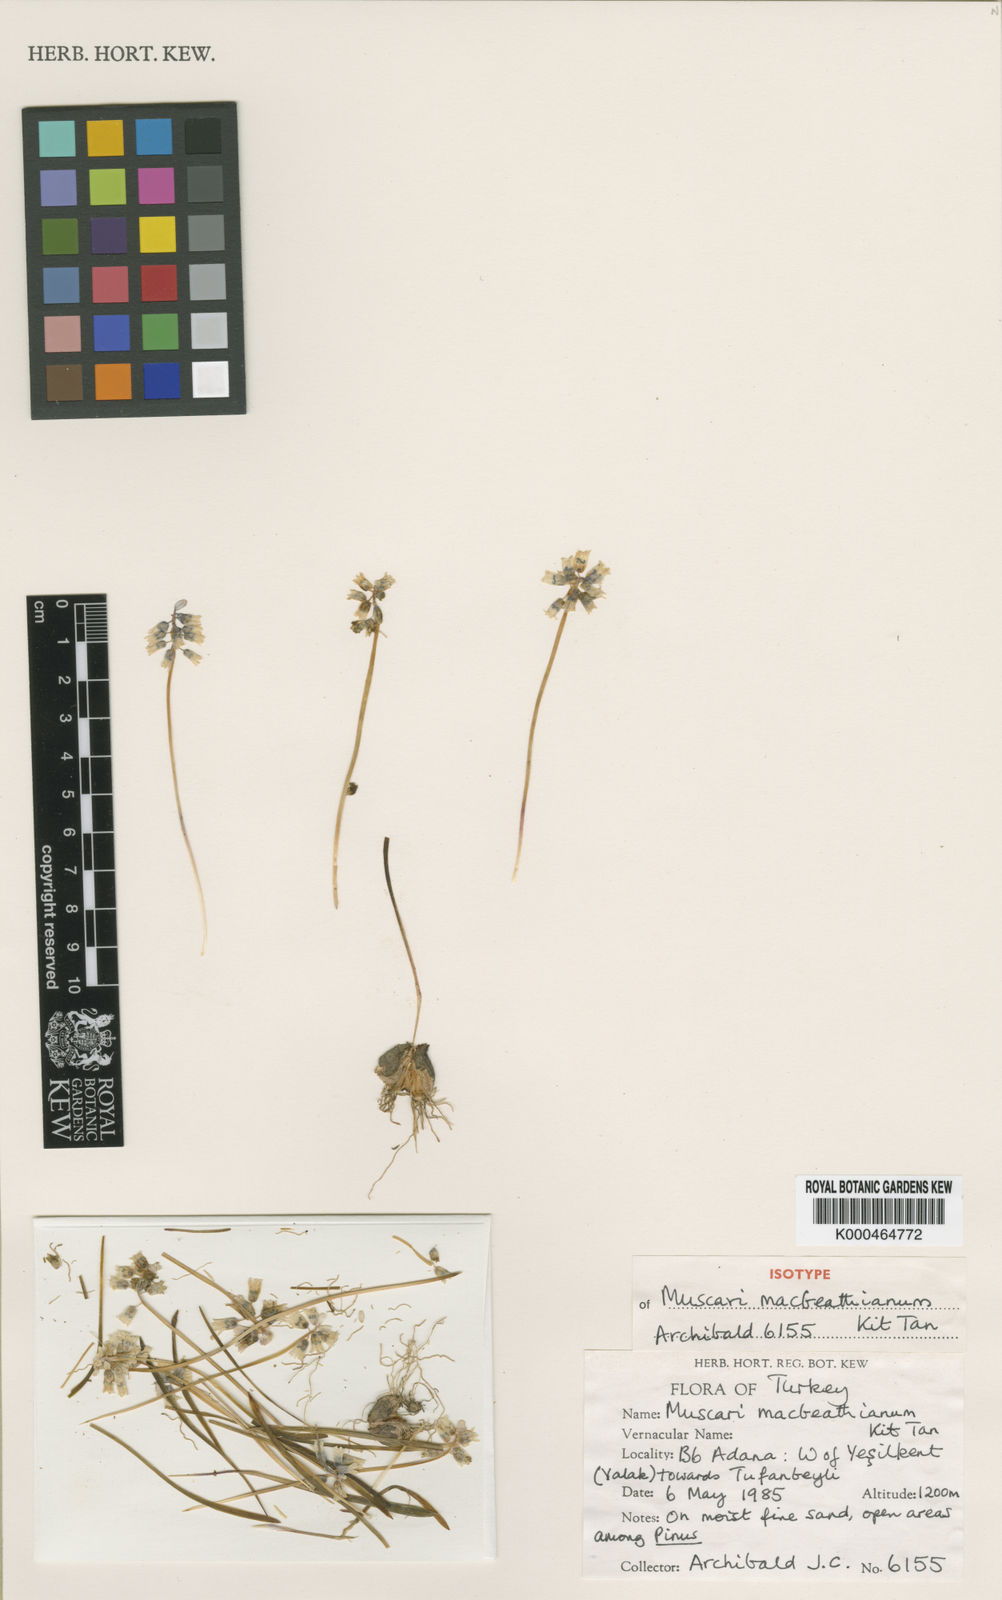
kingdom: Plantae
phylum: Tracheophyta
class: Liliopsida
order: Asparagales
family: Asparagaceae
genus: Muscari
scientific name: Muscari macbeathianum
